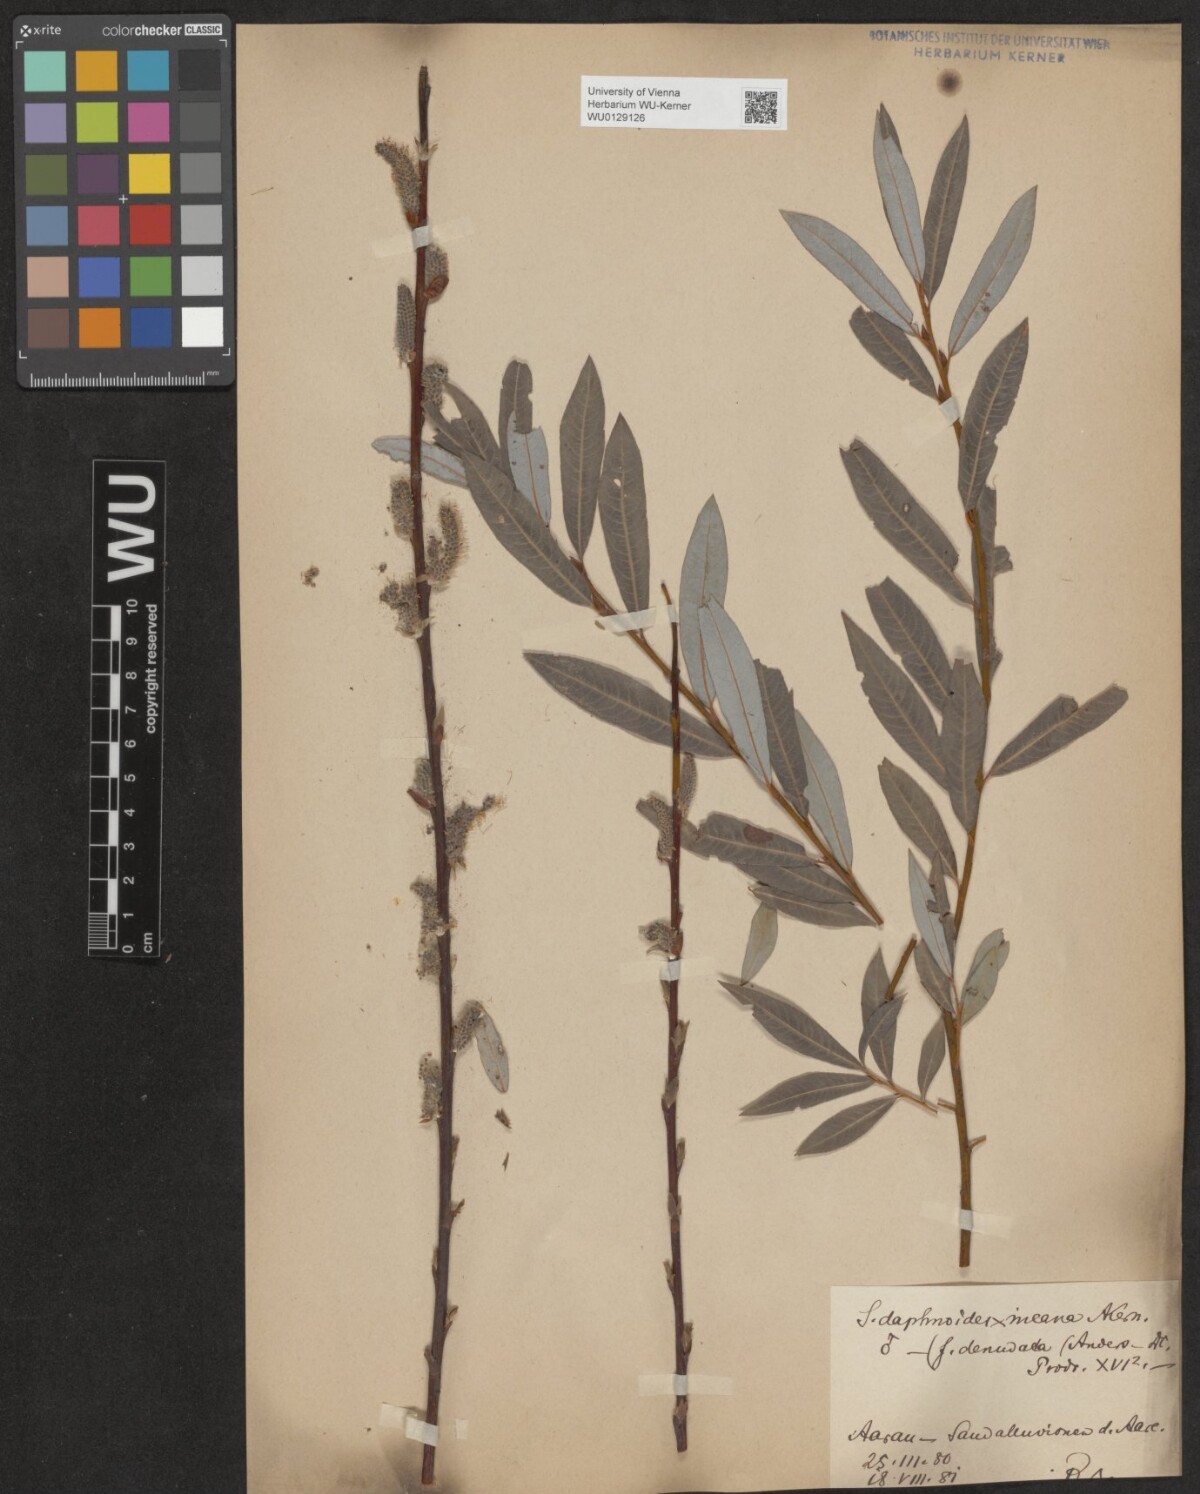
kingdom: Plantae
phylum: Tracheophyta
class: Magnoliopsida
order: Malpighiales
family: Salicaceae
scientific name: Salicaceae
